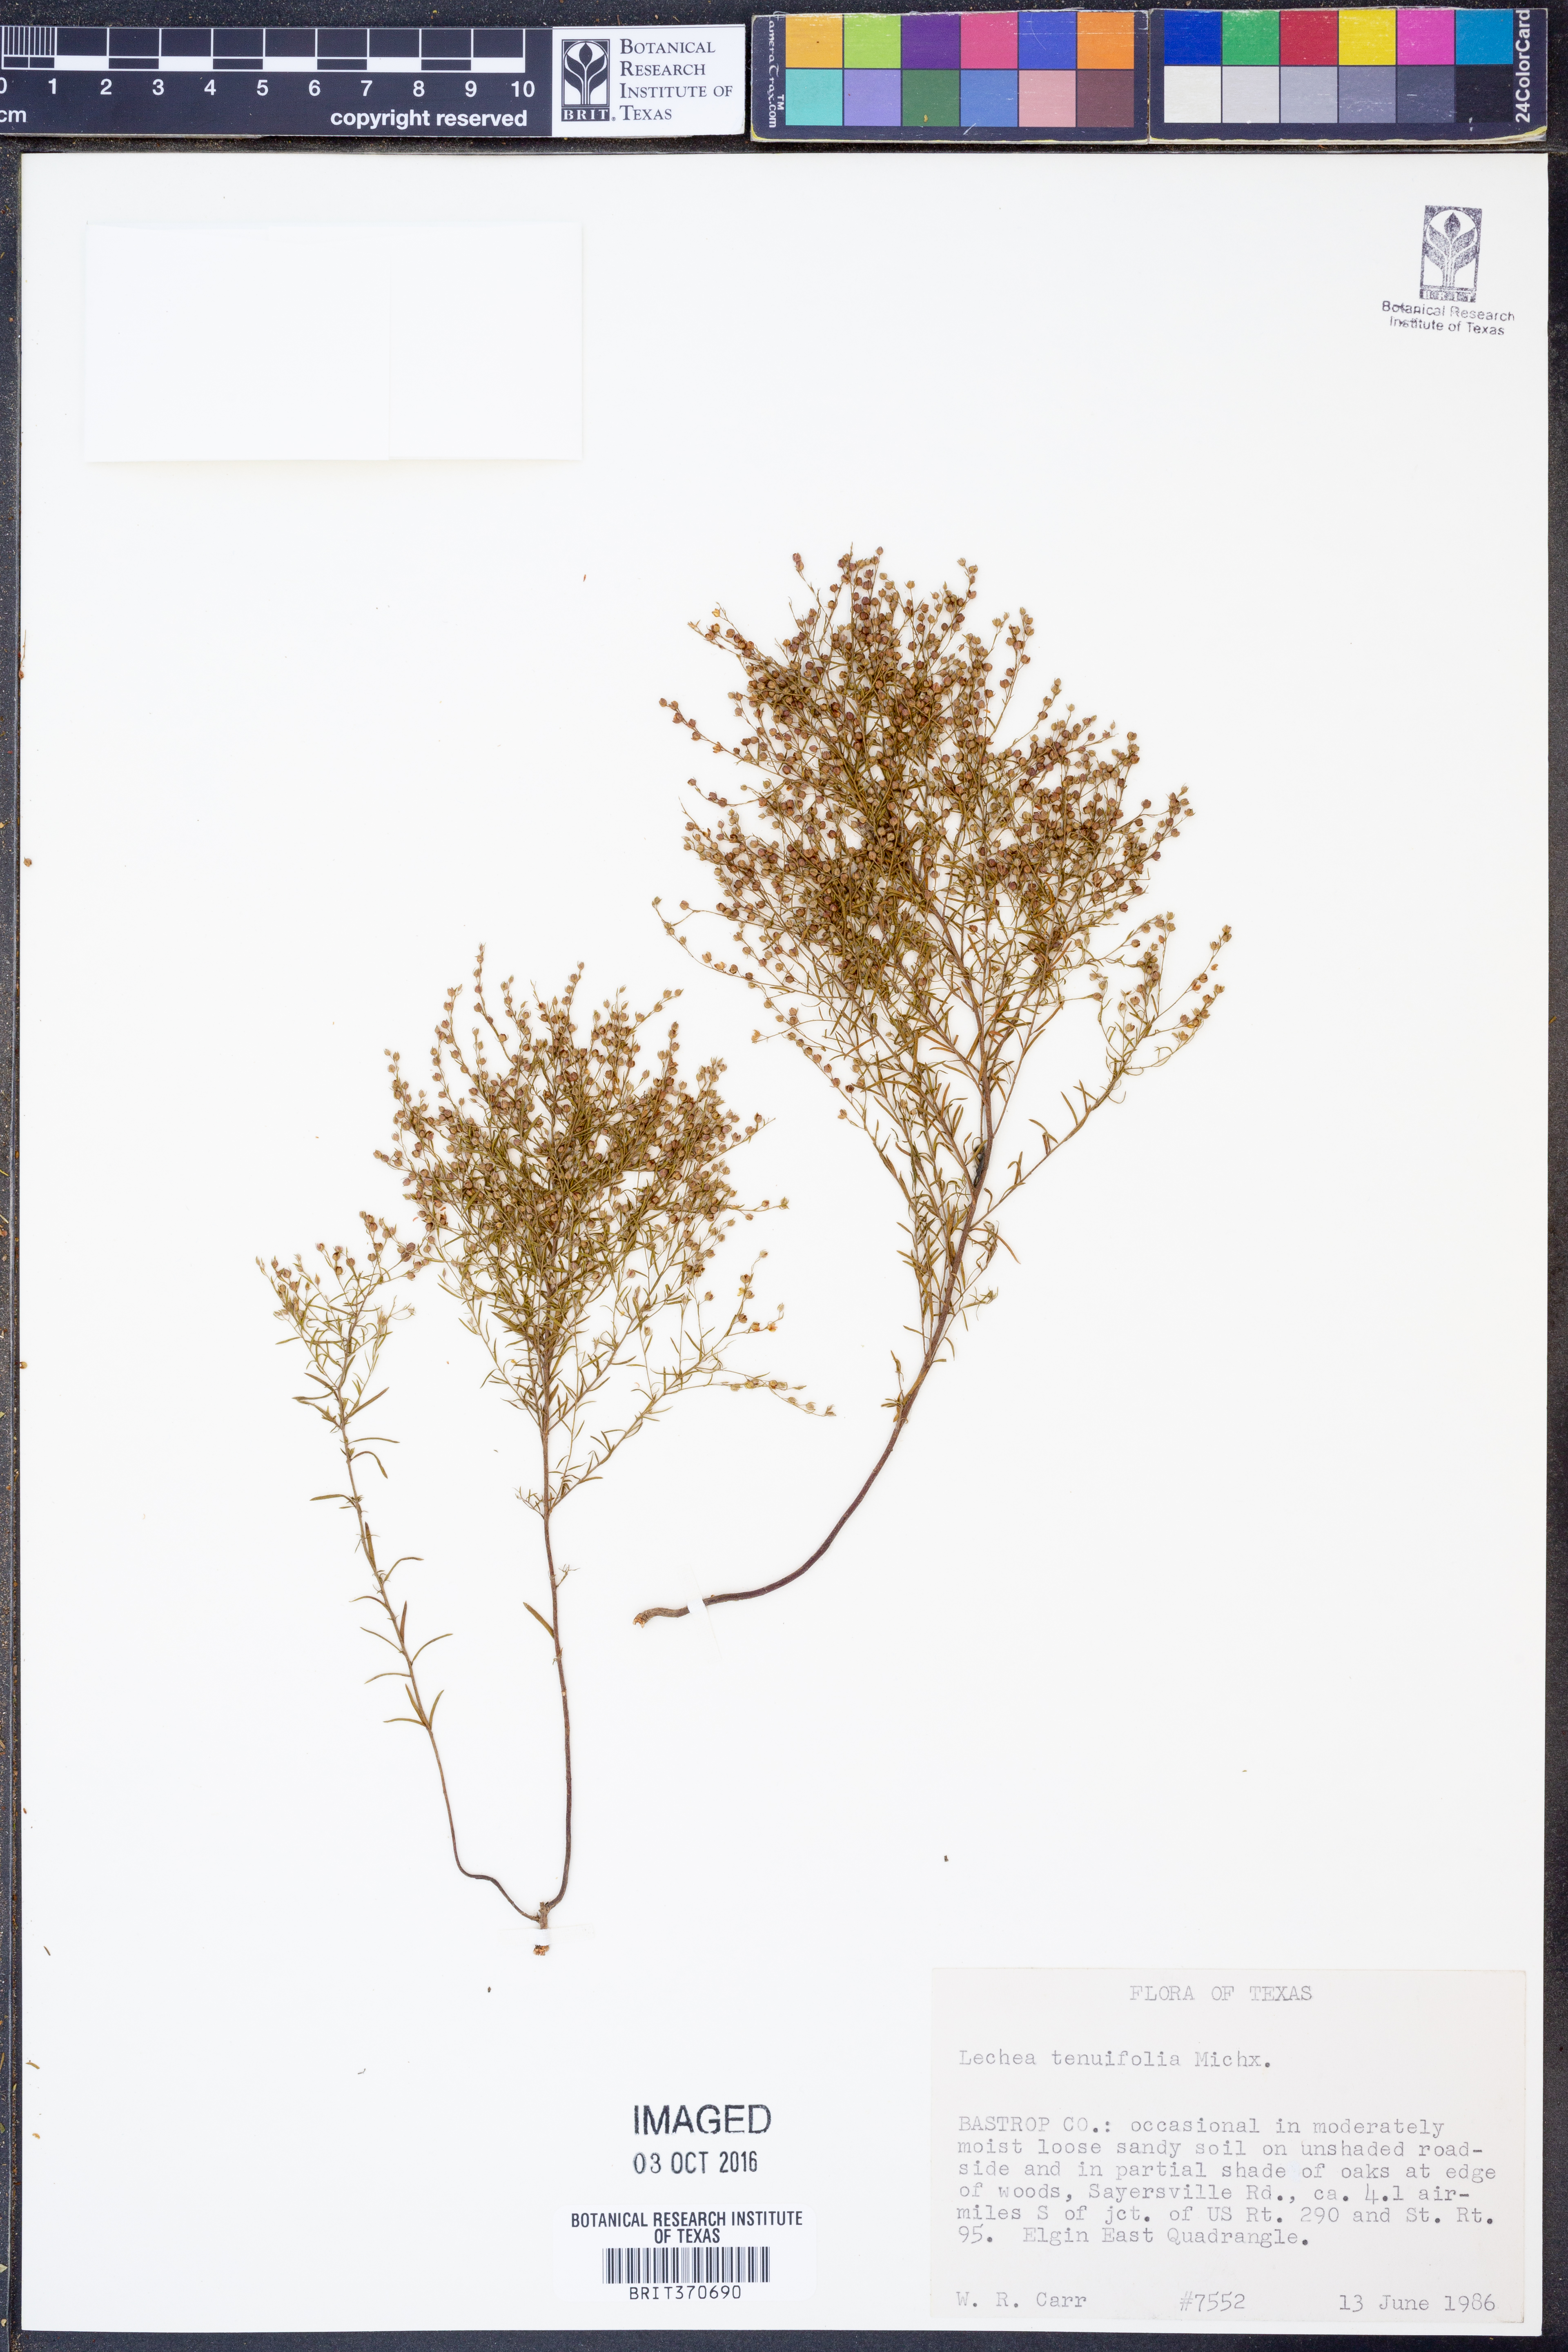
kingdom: Plantae
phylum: Tracheophyta
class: Magnoliopsida
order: Malvales
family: Cistaceae
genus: Lechea
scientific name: Lechea tenuifolia
